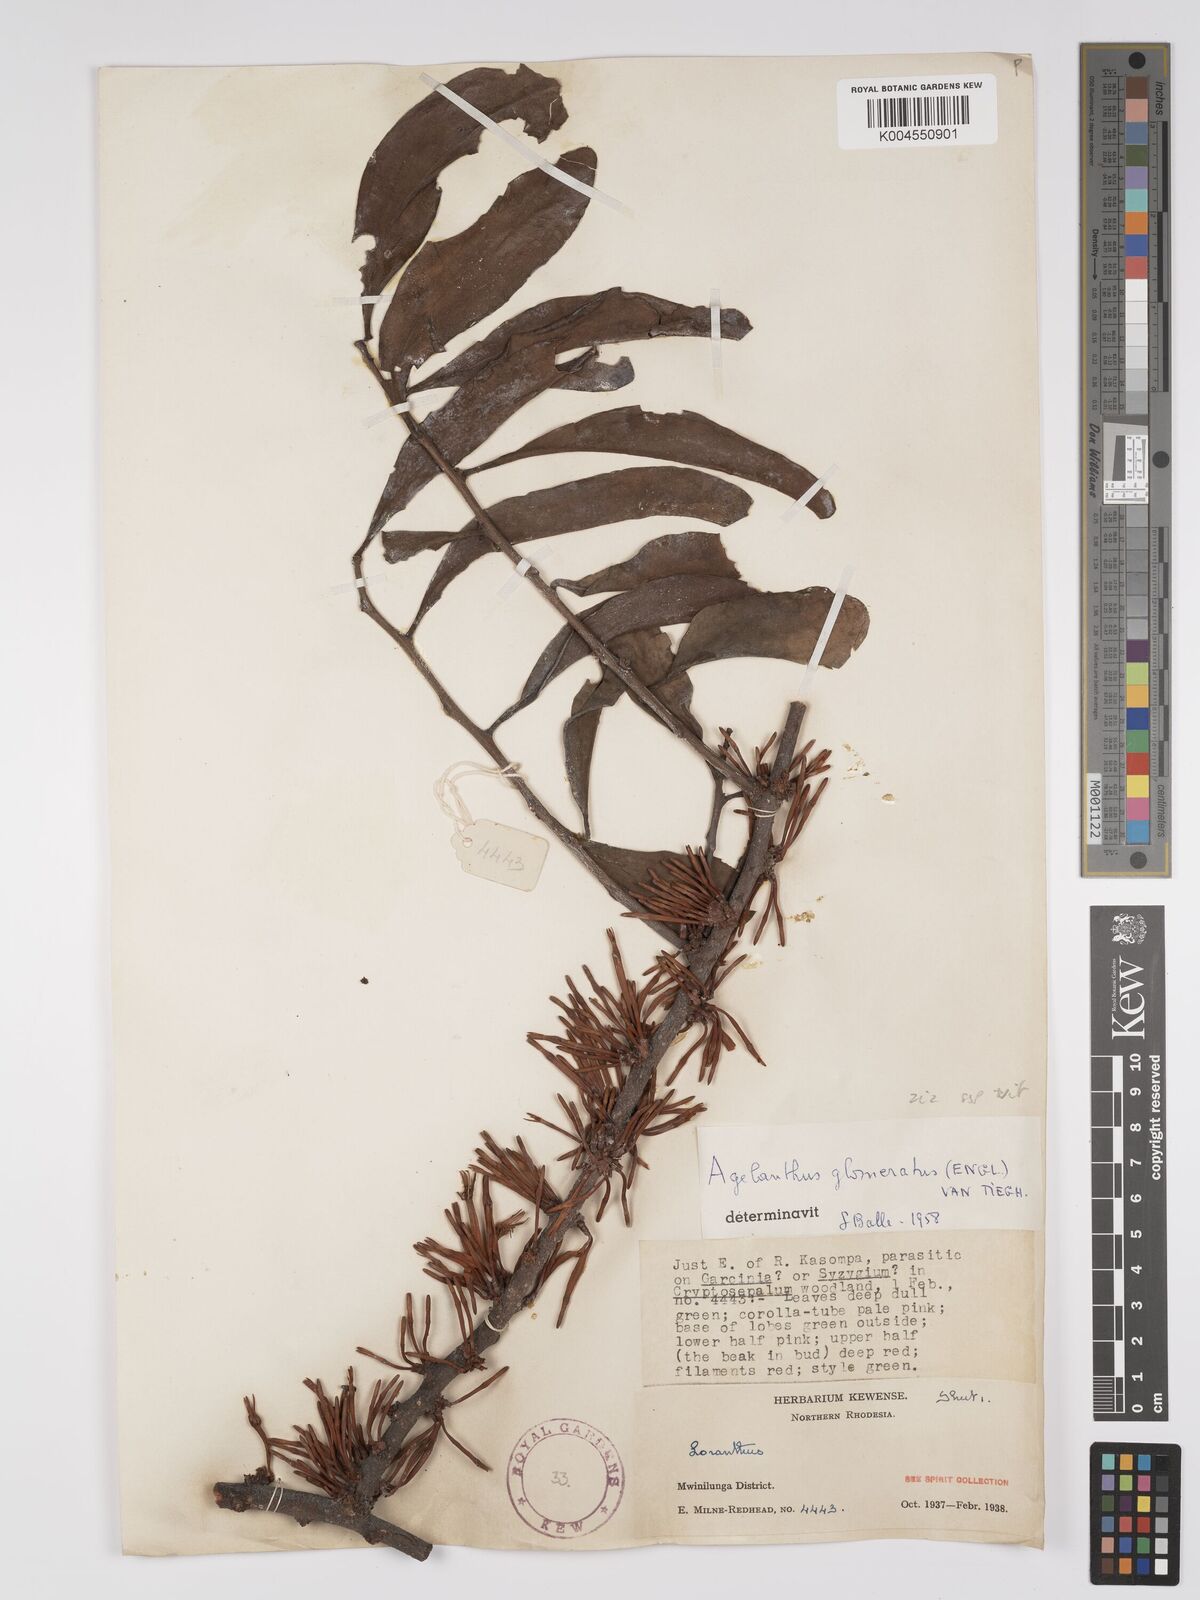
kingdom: Plantae
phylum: Tracheophyta
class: Magnoliopsida
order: Santalales
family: Loranthaceae
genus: Agelanthus
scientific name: Agelanthus zizyphifolius
